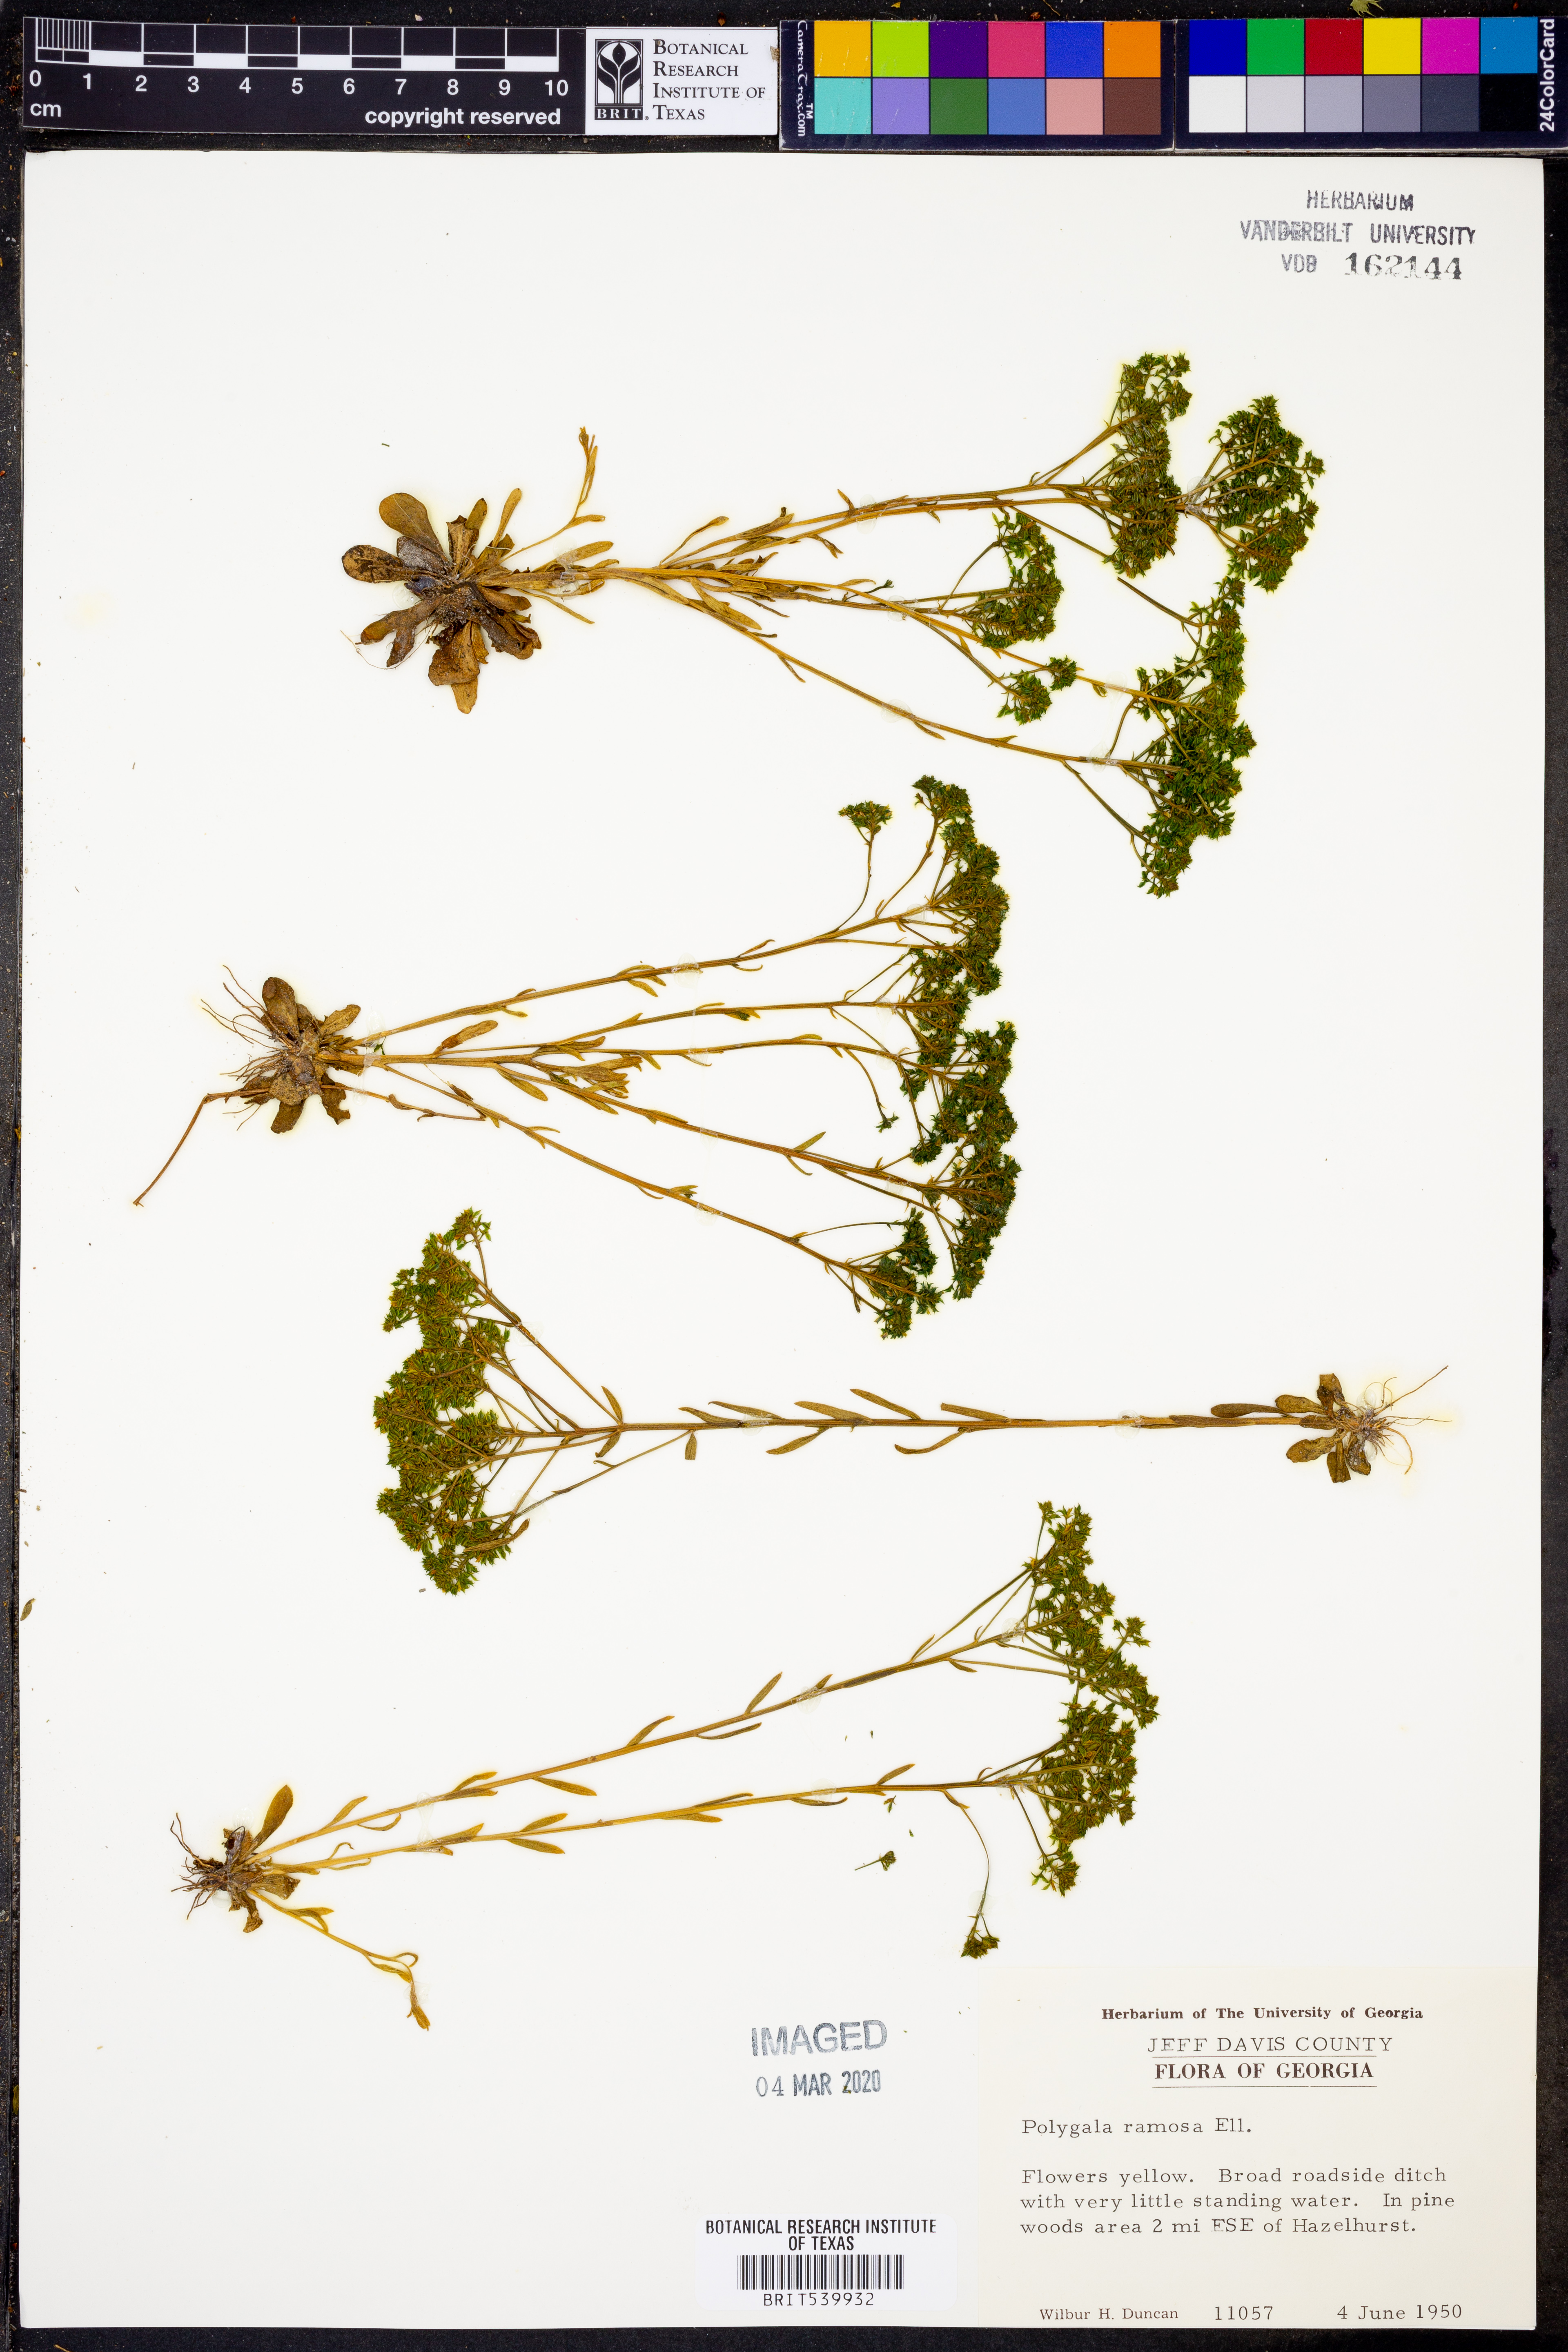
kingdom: Plantae
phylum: Tracheophyta
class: Magnoliopsida
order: Fabales
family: Polygalaceae
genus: Polygala
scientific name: Polygala ramosa
